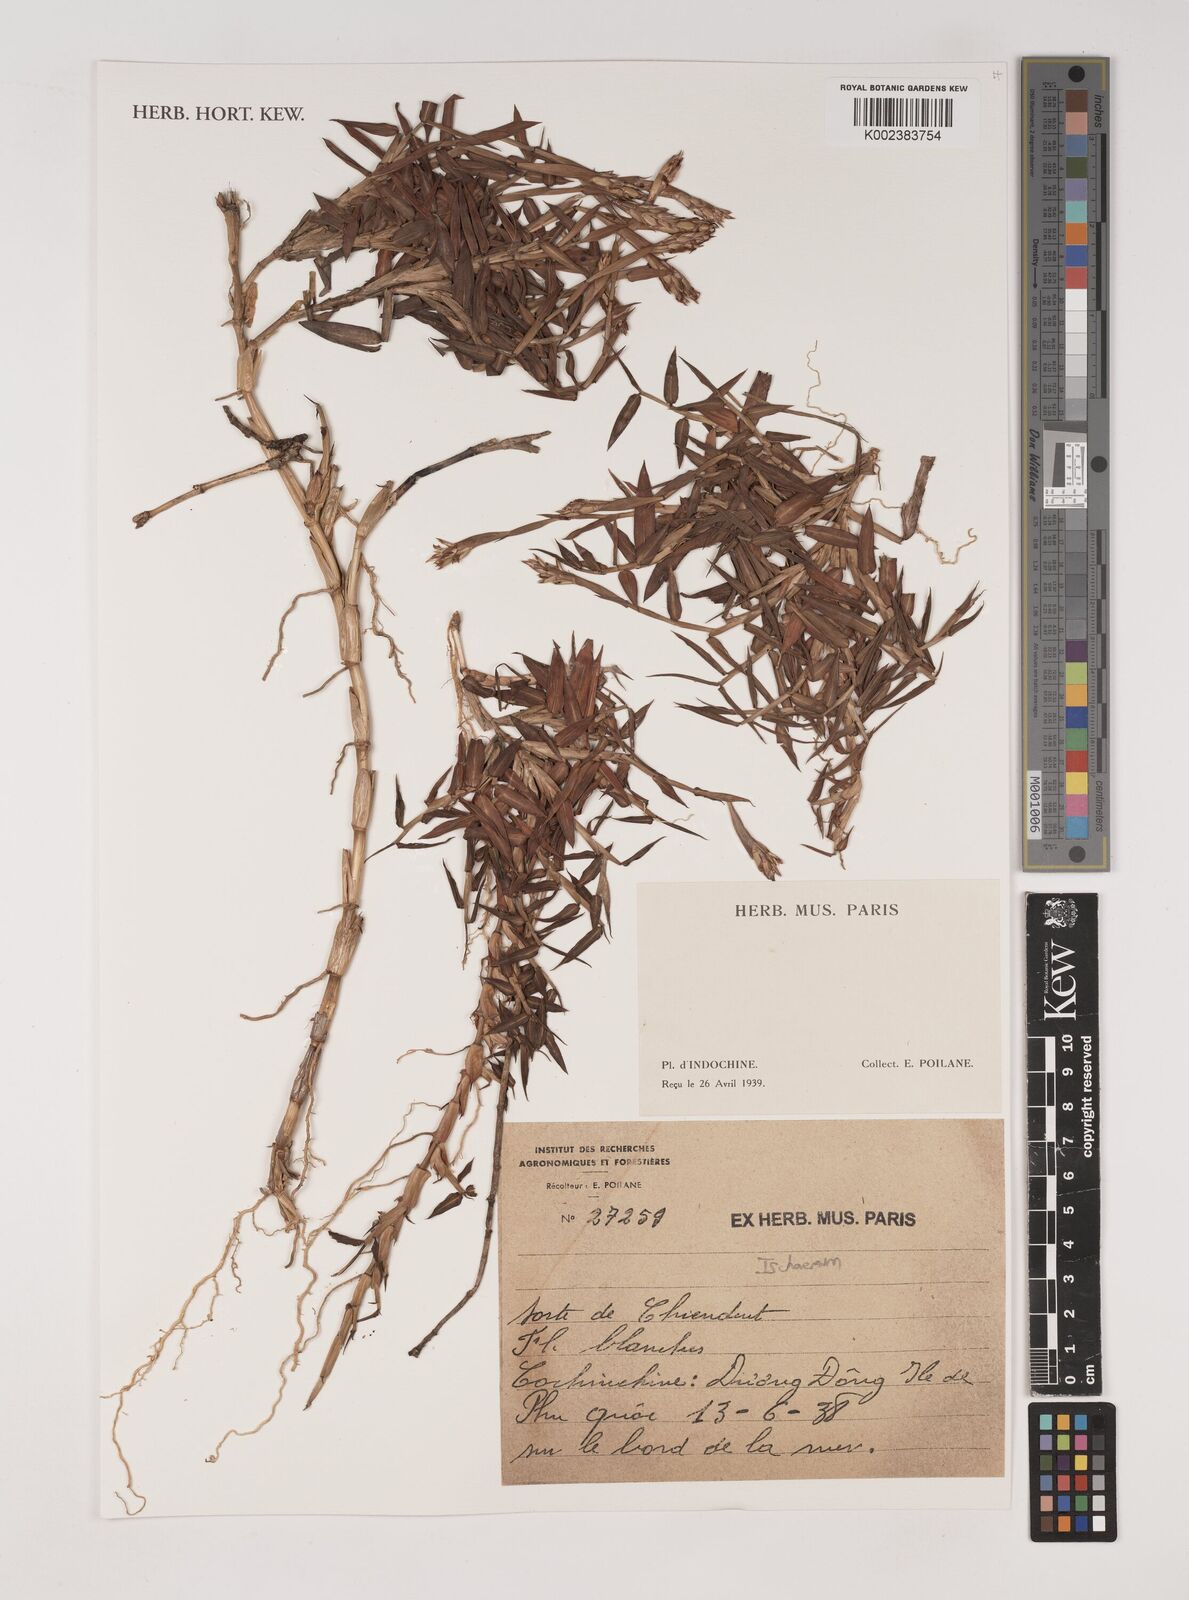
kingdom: Plantae
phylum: Tracheophyta
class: Liliopsida
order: Poales
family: Poaceae
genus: Ischaemum
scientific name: Ischaemum
